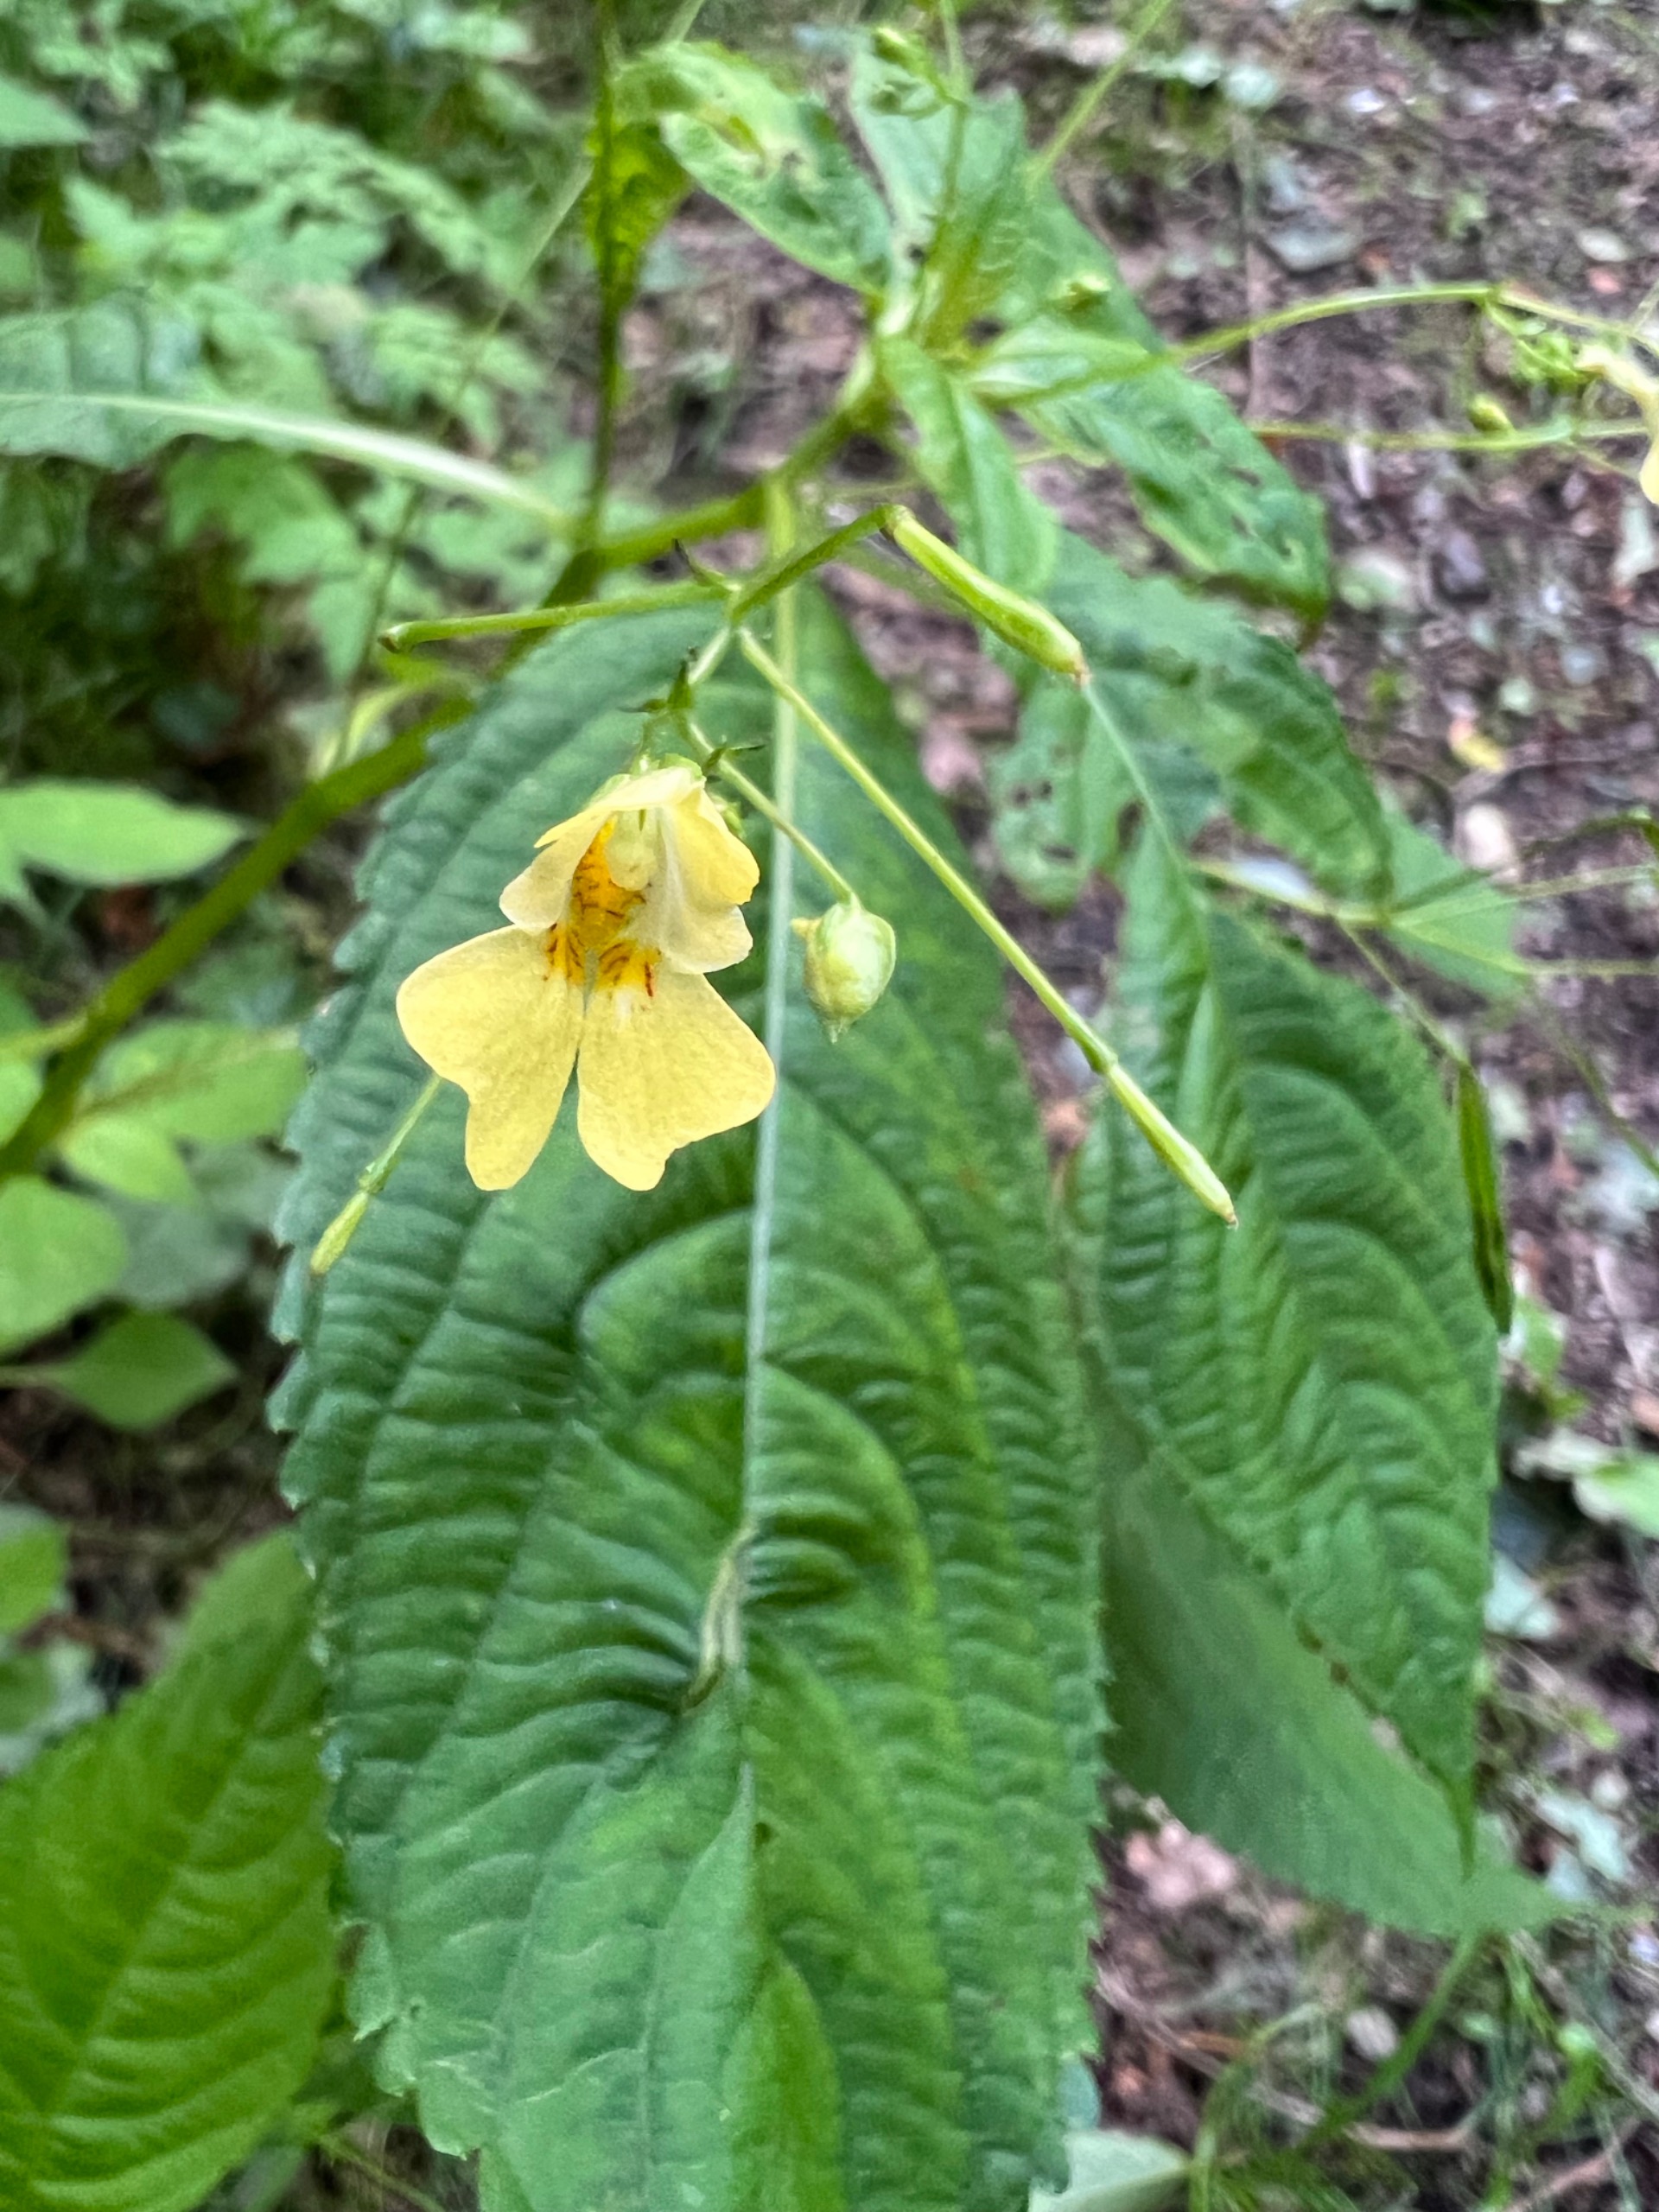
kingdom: Plantae
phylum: Tracheophyta
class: Magnoliopsida
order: Ericales
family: Balsaminaceae
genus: Impatiens
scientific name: Impatiens parviflora
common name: Småblomstret balsamin
